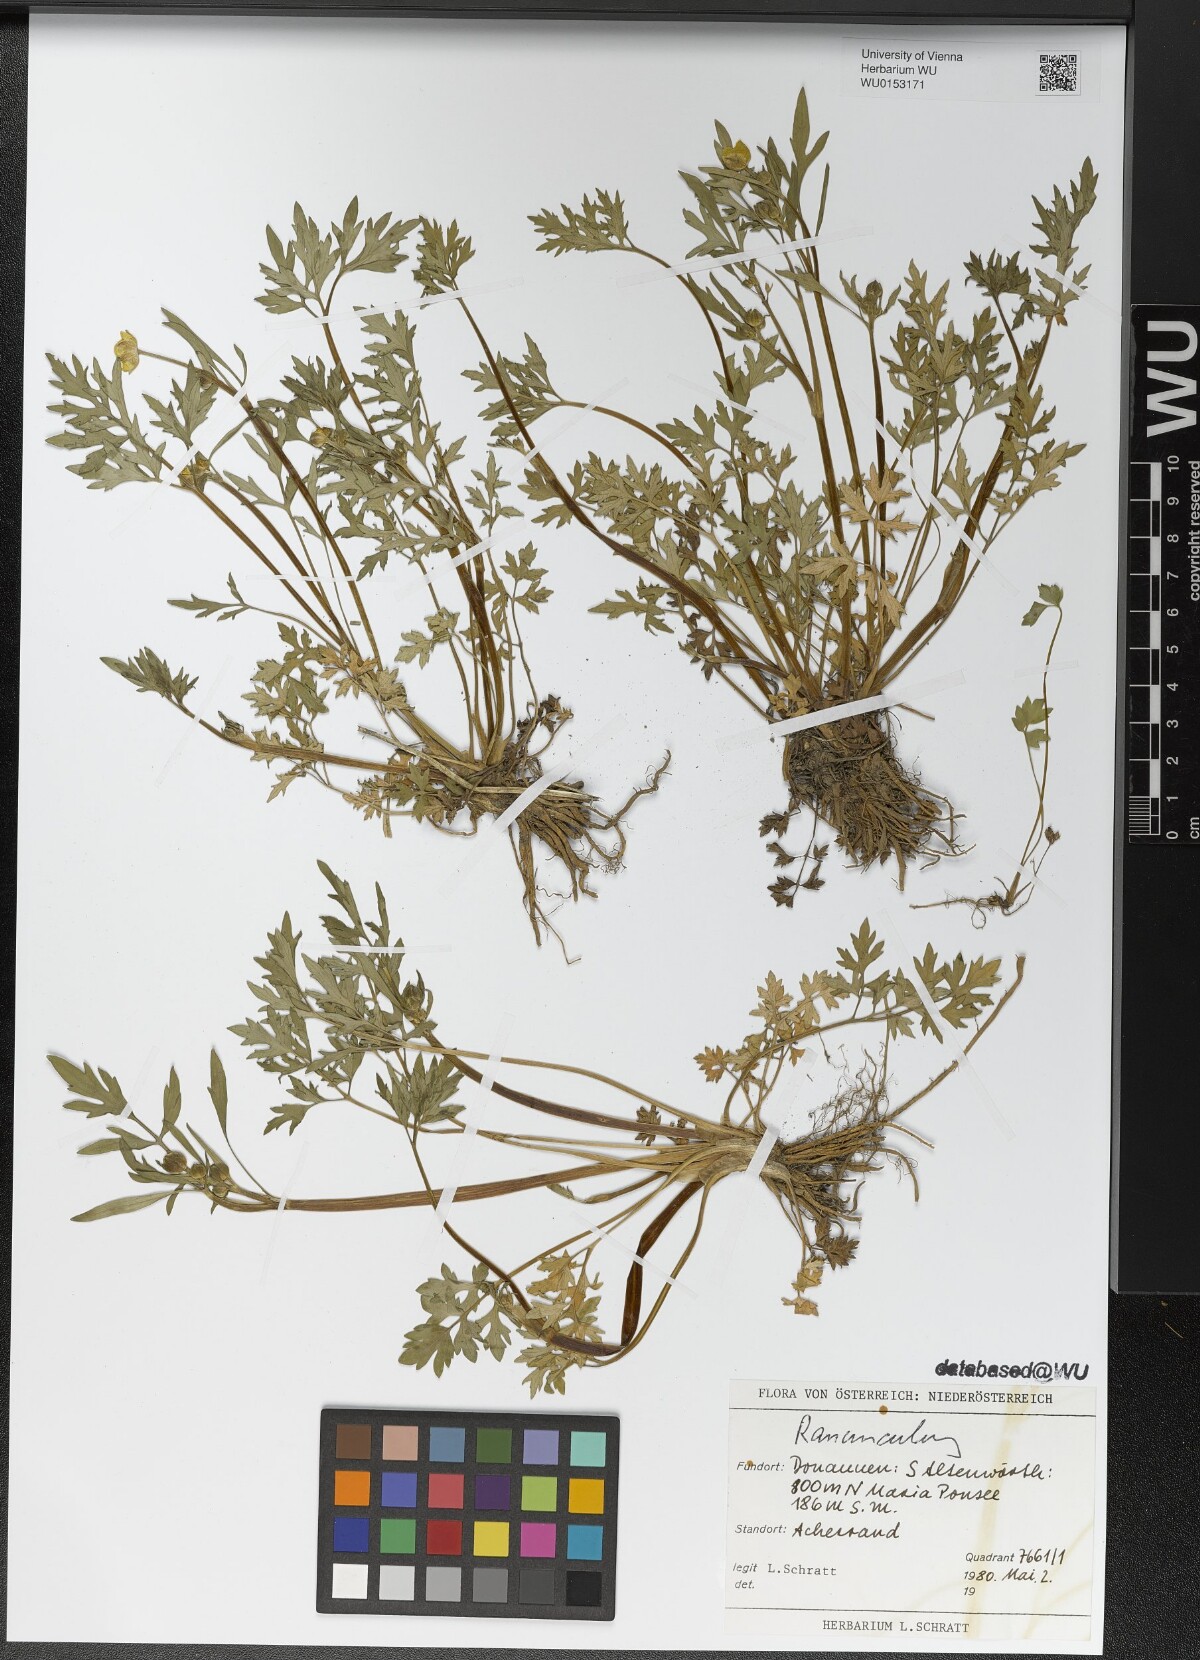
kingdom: Plantae
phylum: Tracheophyta
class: Magnoliopsida
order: Ranunculales
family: Ranunculaceae
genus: Ranunculus
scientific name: Ranunculus
